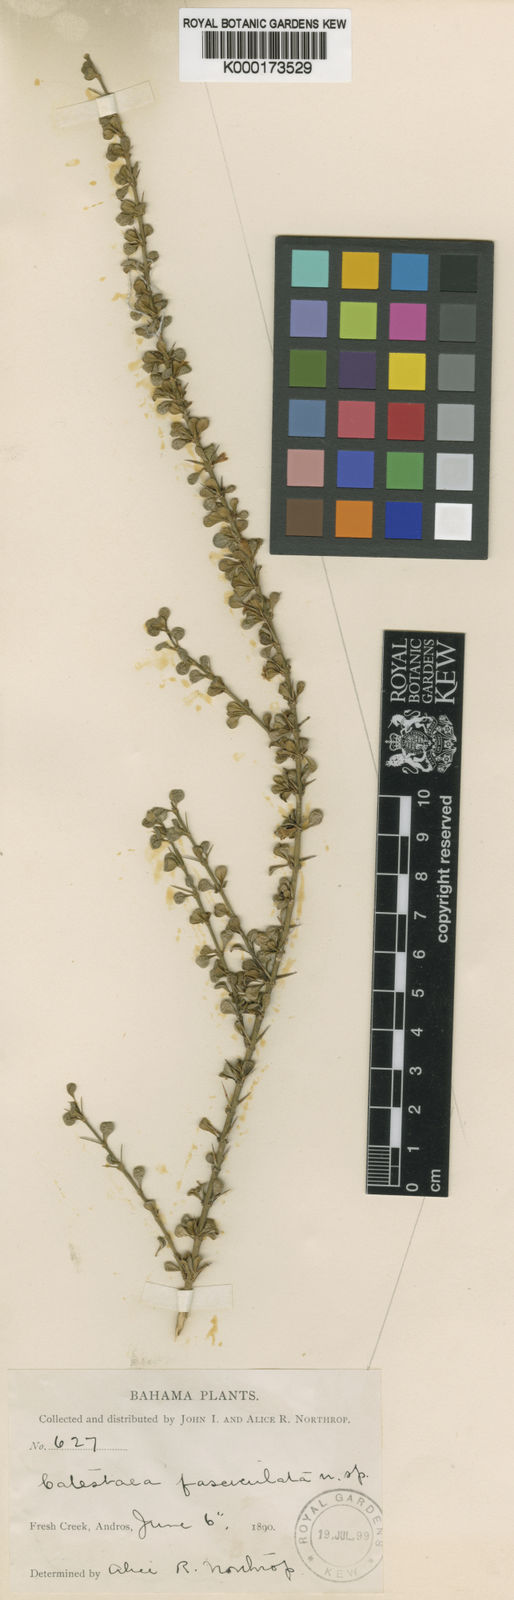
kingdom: Plantae
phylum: Tracheophyta
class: Magnoliopsida
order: Gentianales
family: Rubiaceae
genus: Catesbaea
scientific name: Catesbaea parviflora
